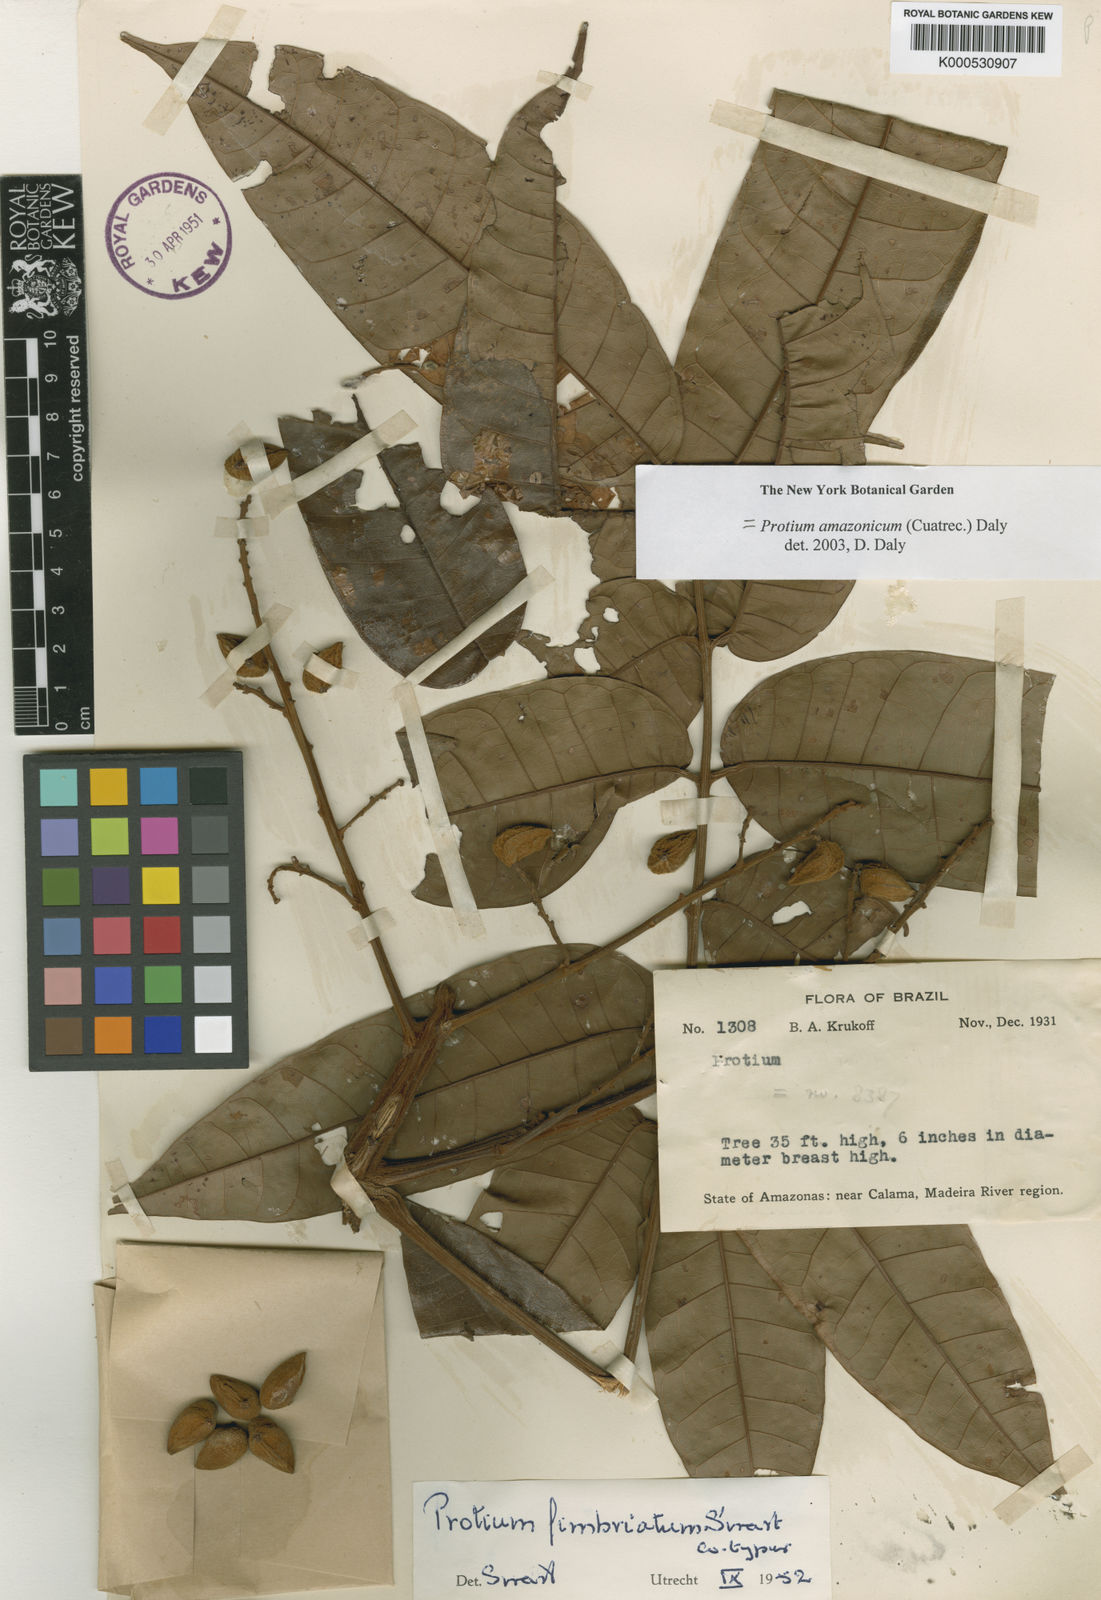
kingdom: Plantae
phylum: Tracheophyta
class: Magnoliopsida
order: Sapindales
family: Burseraceae
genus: Protium
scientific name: Protium amazonicum
